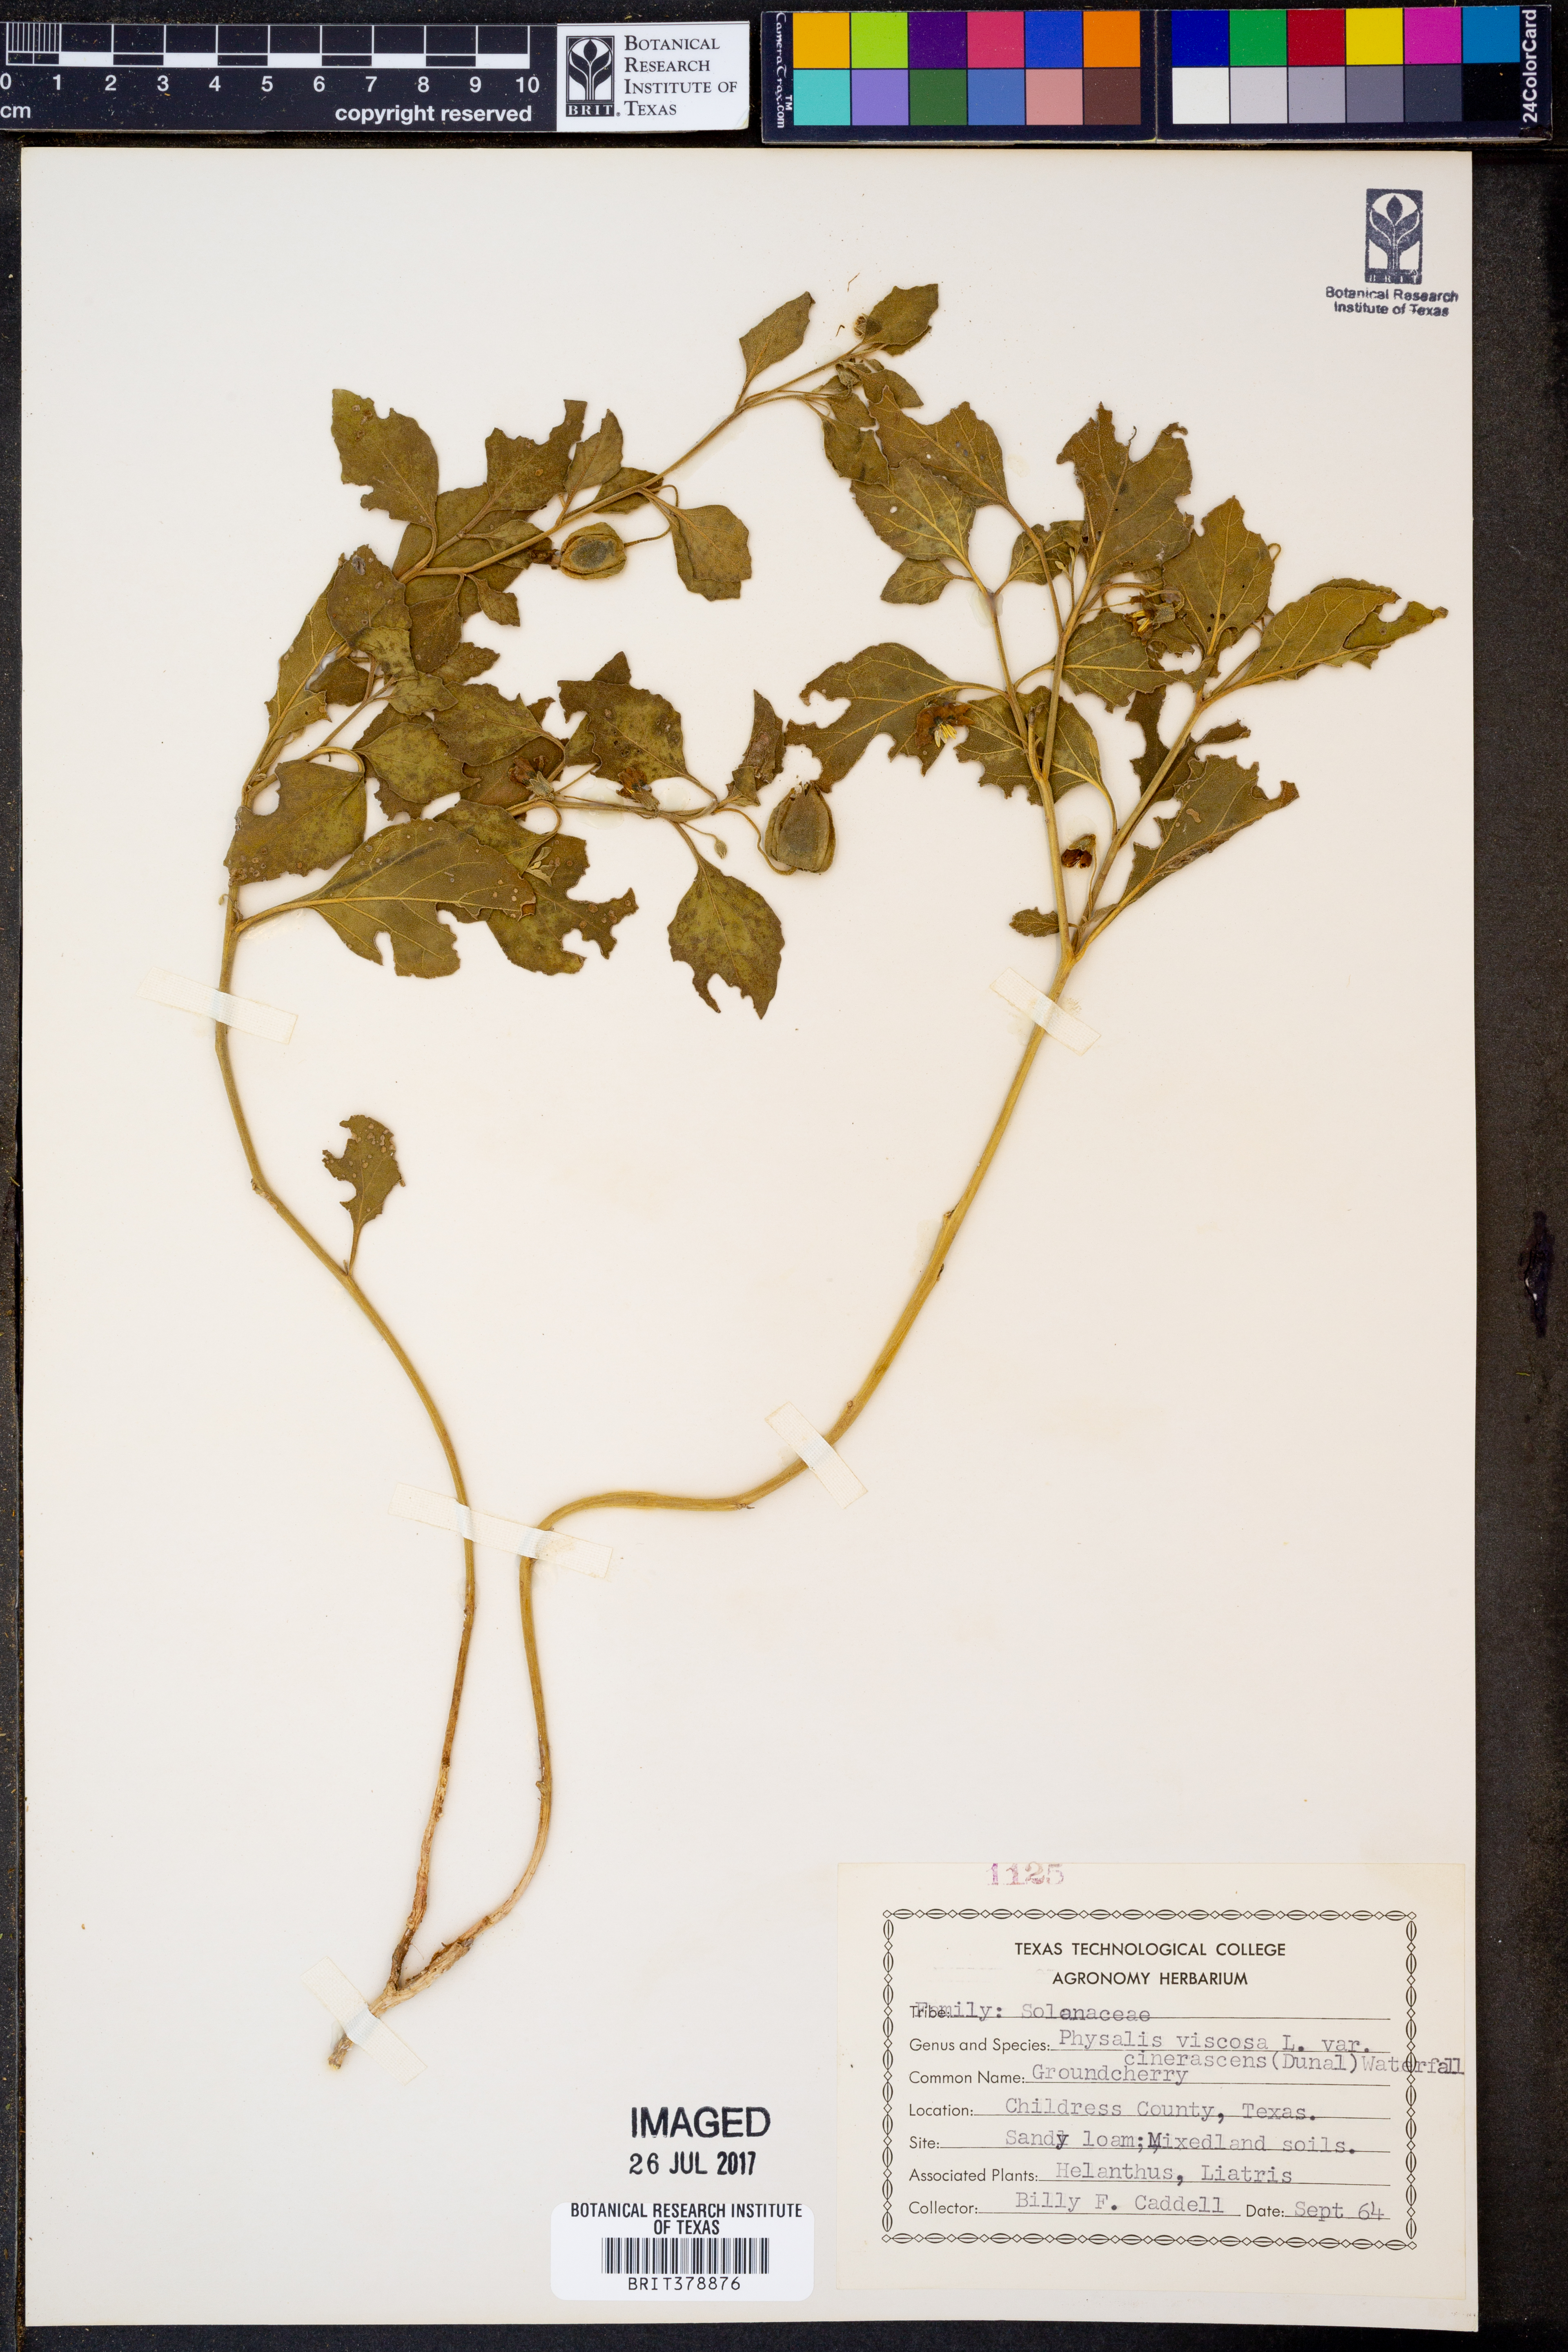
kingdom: Plantae
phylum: Tracheophyta
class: Magnoliopsida
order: Solanales
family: Solanaceae
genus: Physalis
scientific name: Physalis viscosa
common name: Stellate ground-cherry
